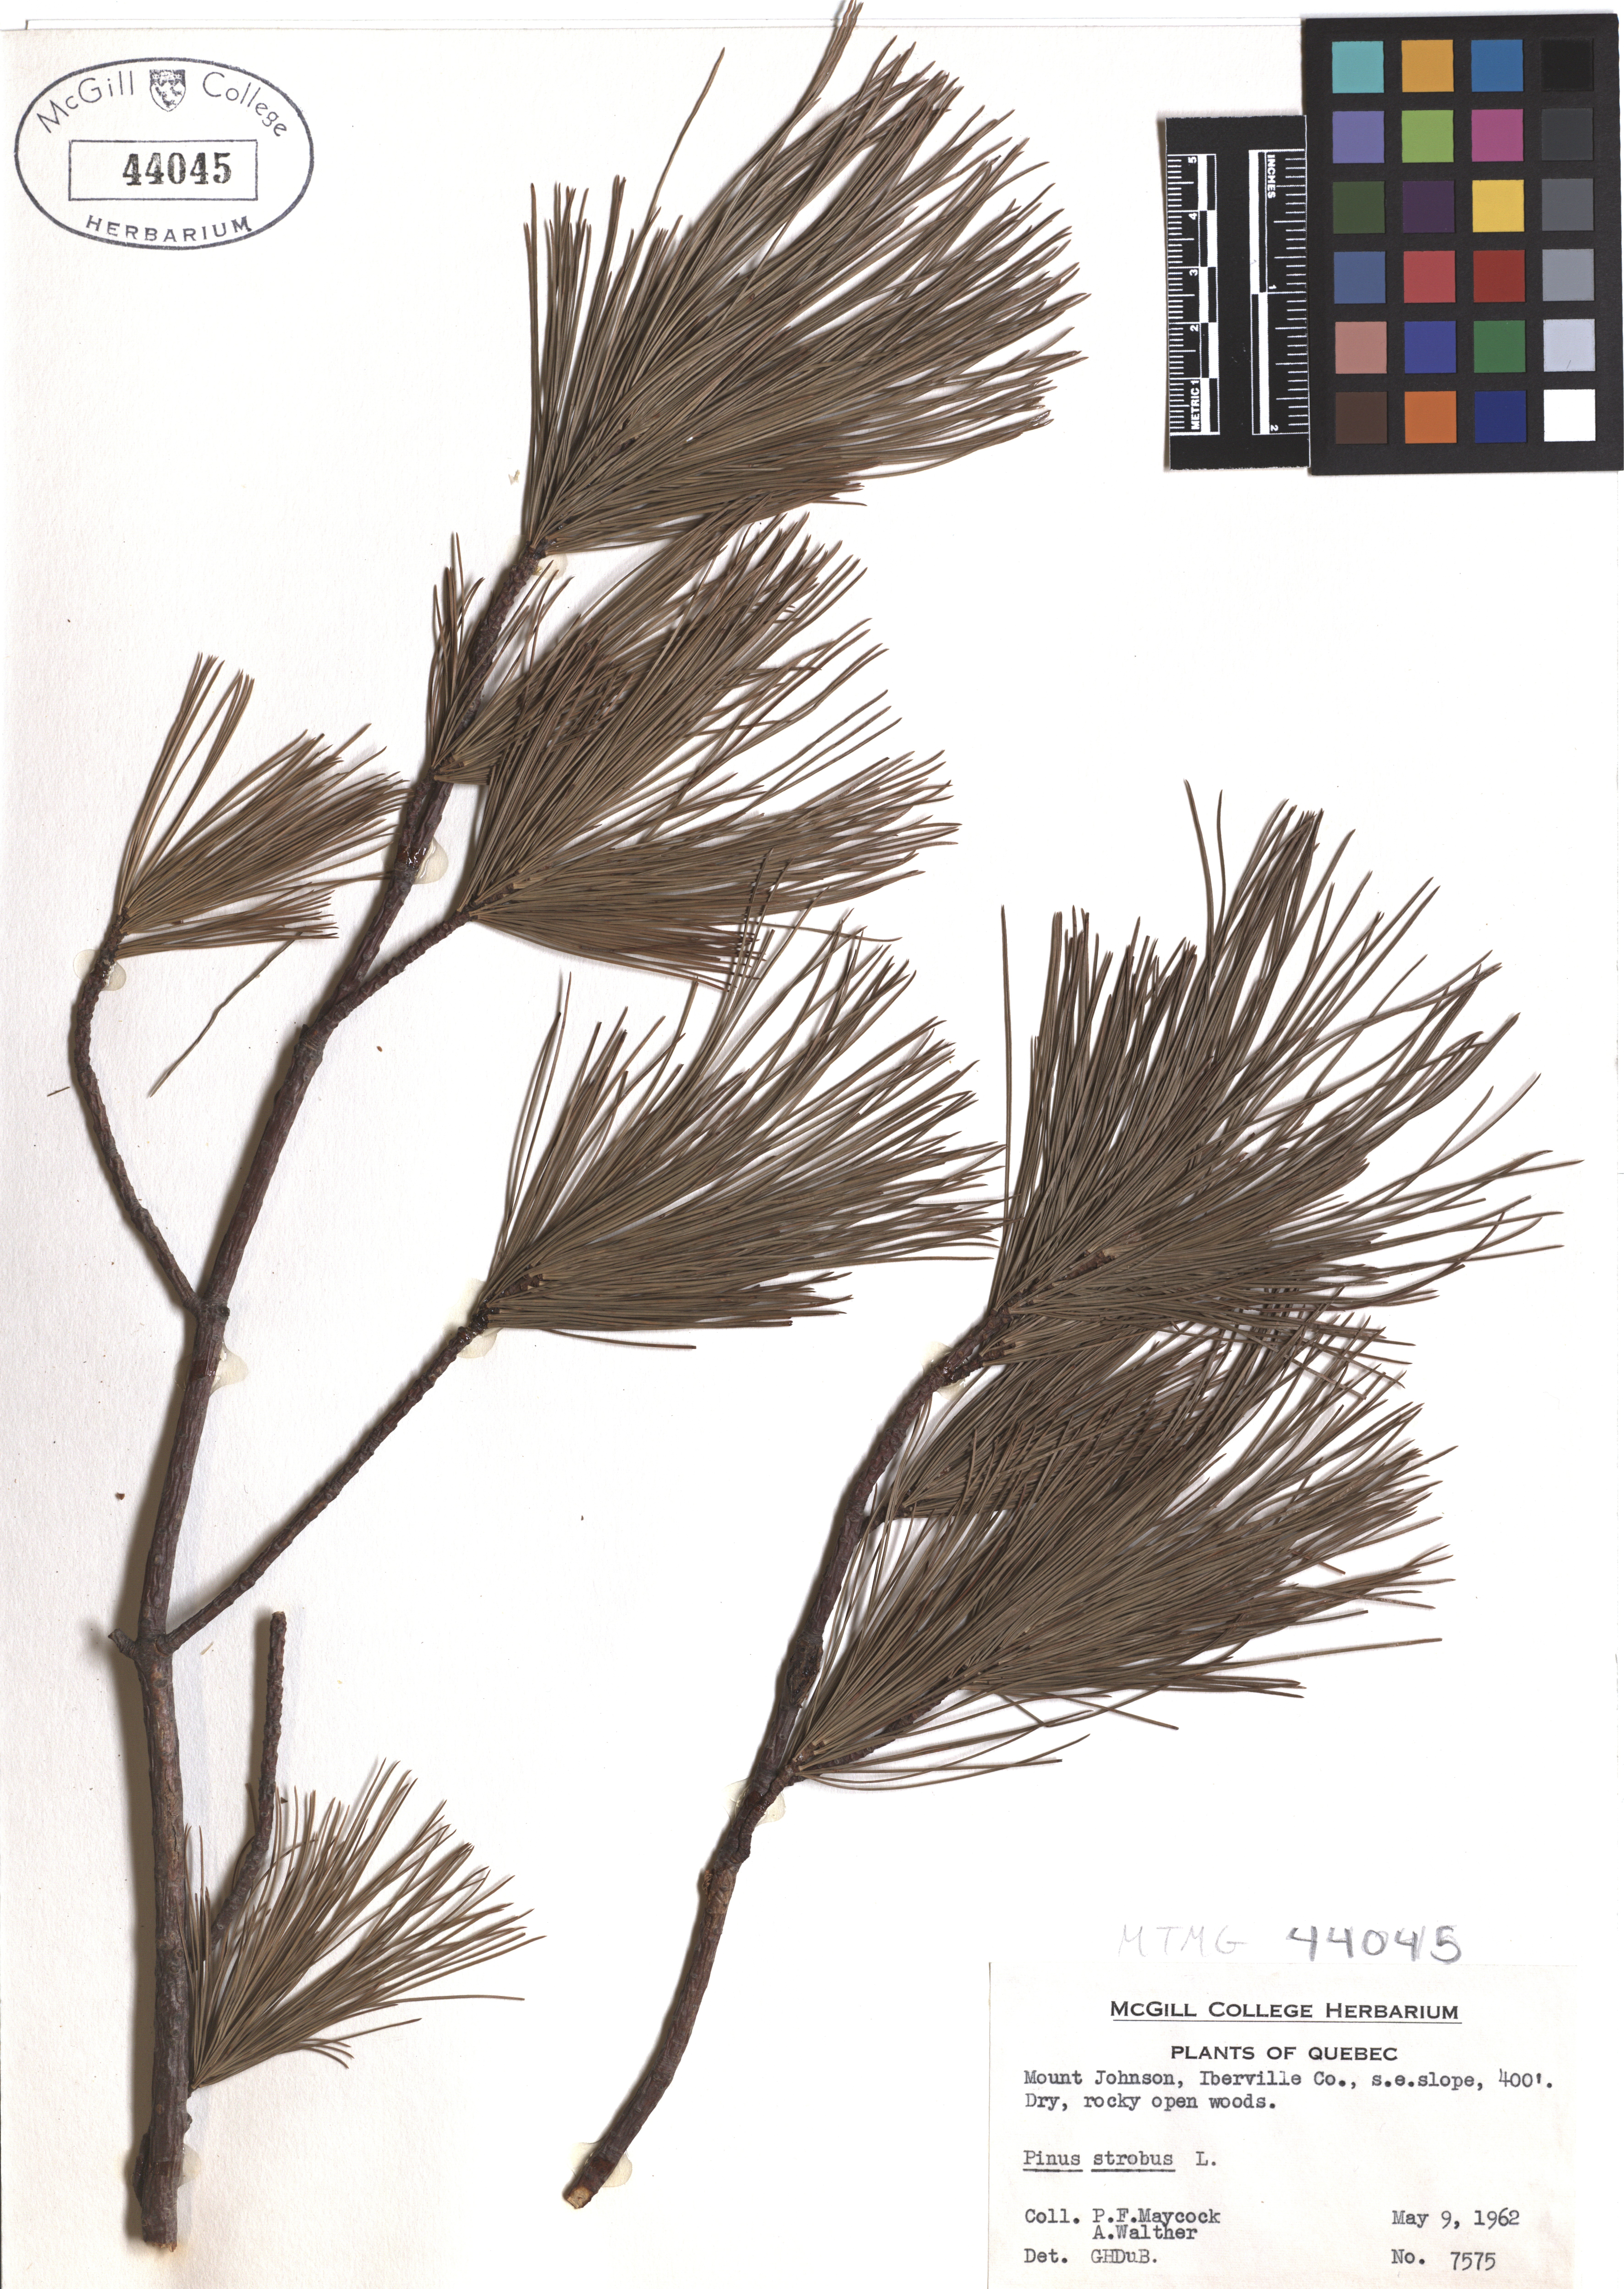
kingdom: Plantae
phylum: Tracheophyta
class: Pinopsida
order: Pinales
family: Pinaceae
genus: Pinus
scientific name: Pinus strobus
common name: Weymouth pine
